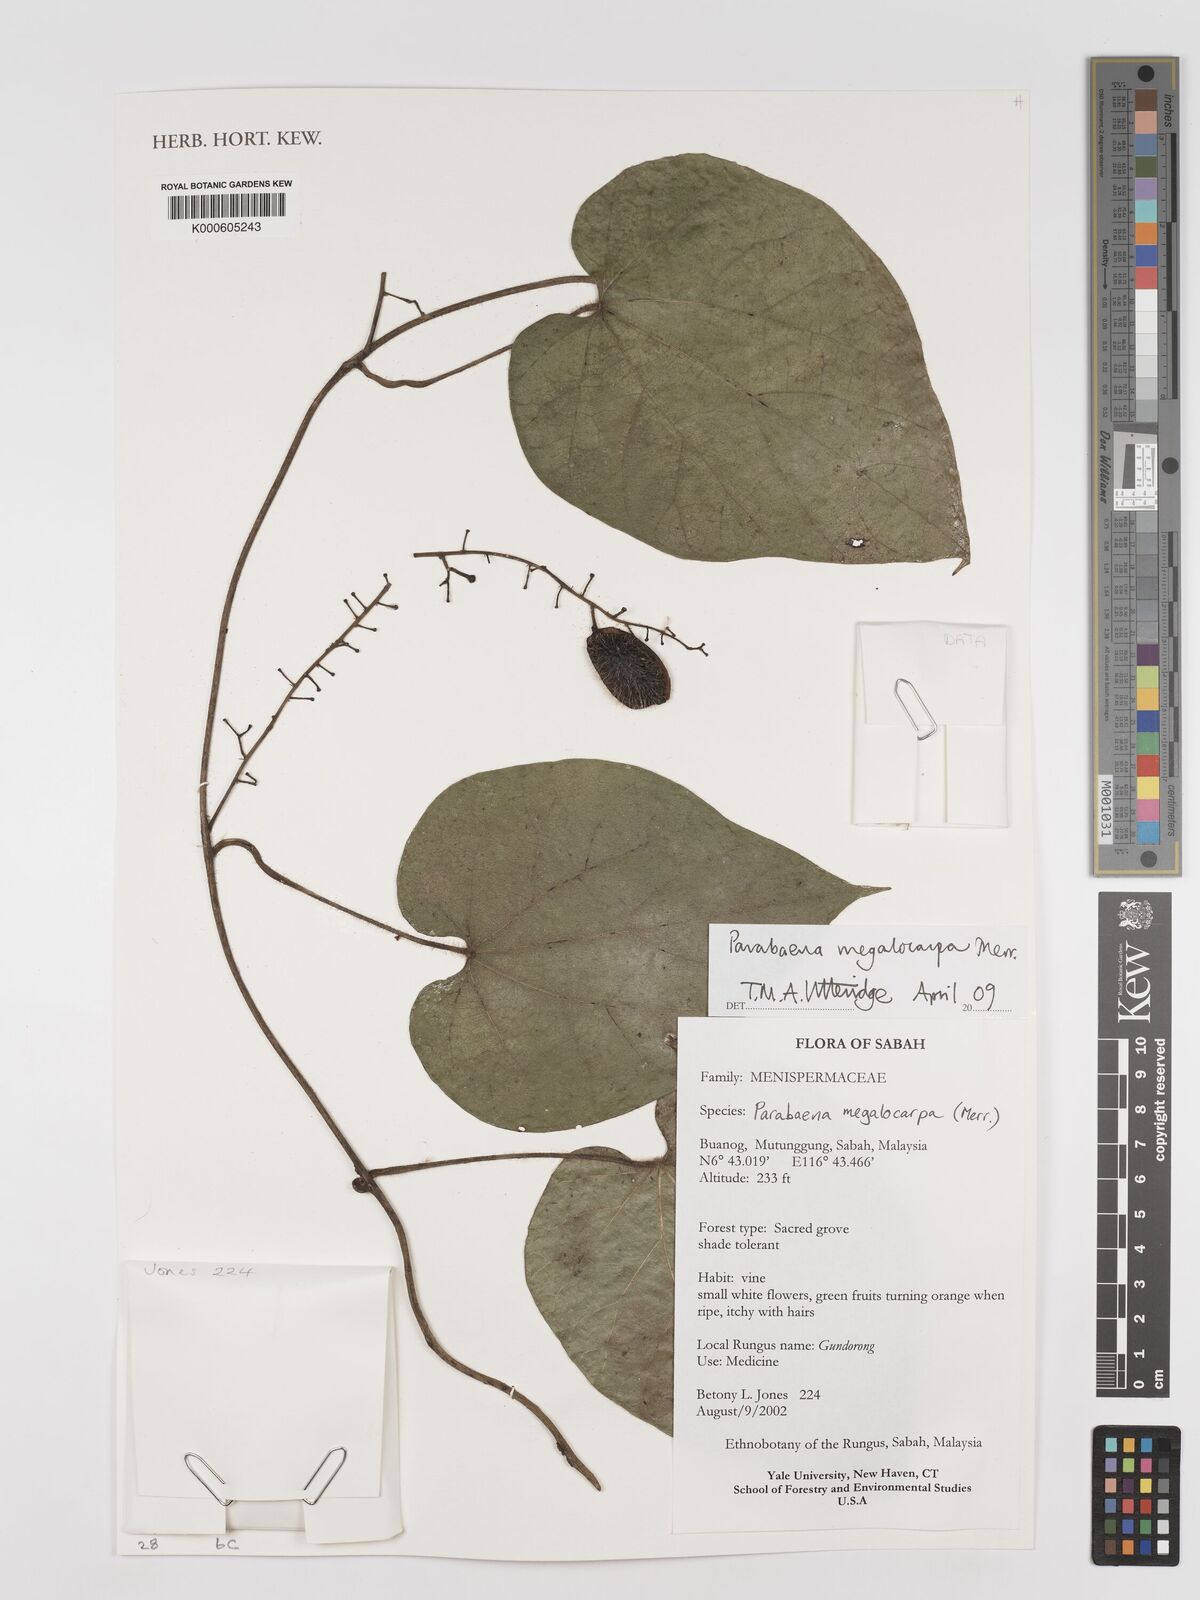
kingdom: Plantae
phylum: Tracheophyta
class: Magnoliopsida
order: Ranunculales
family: Menispermaceae
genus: Parabaena
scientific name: Parabaena megalocarpa
